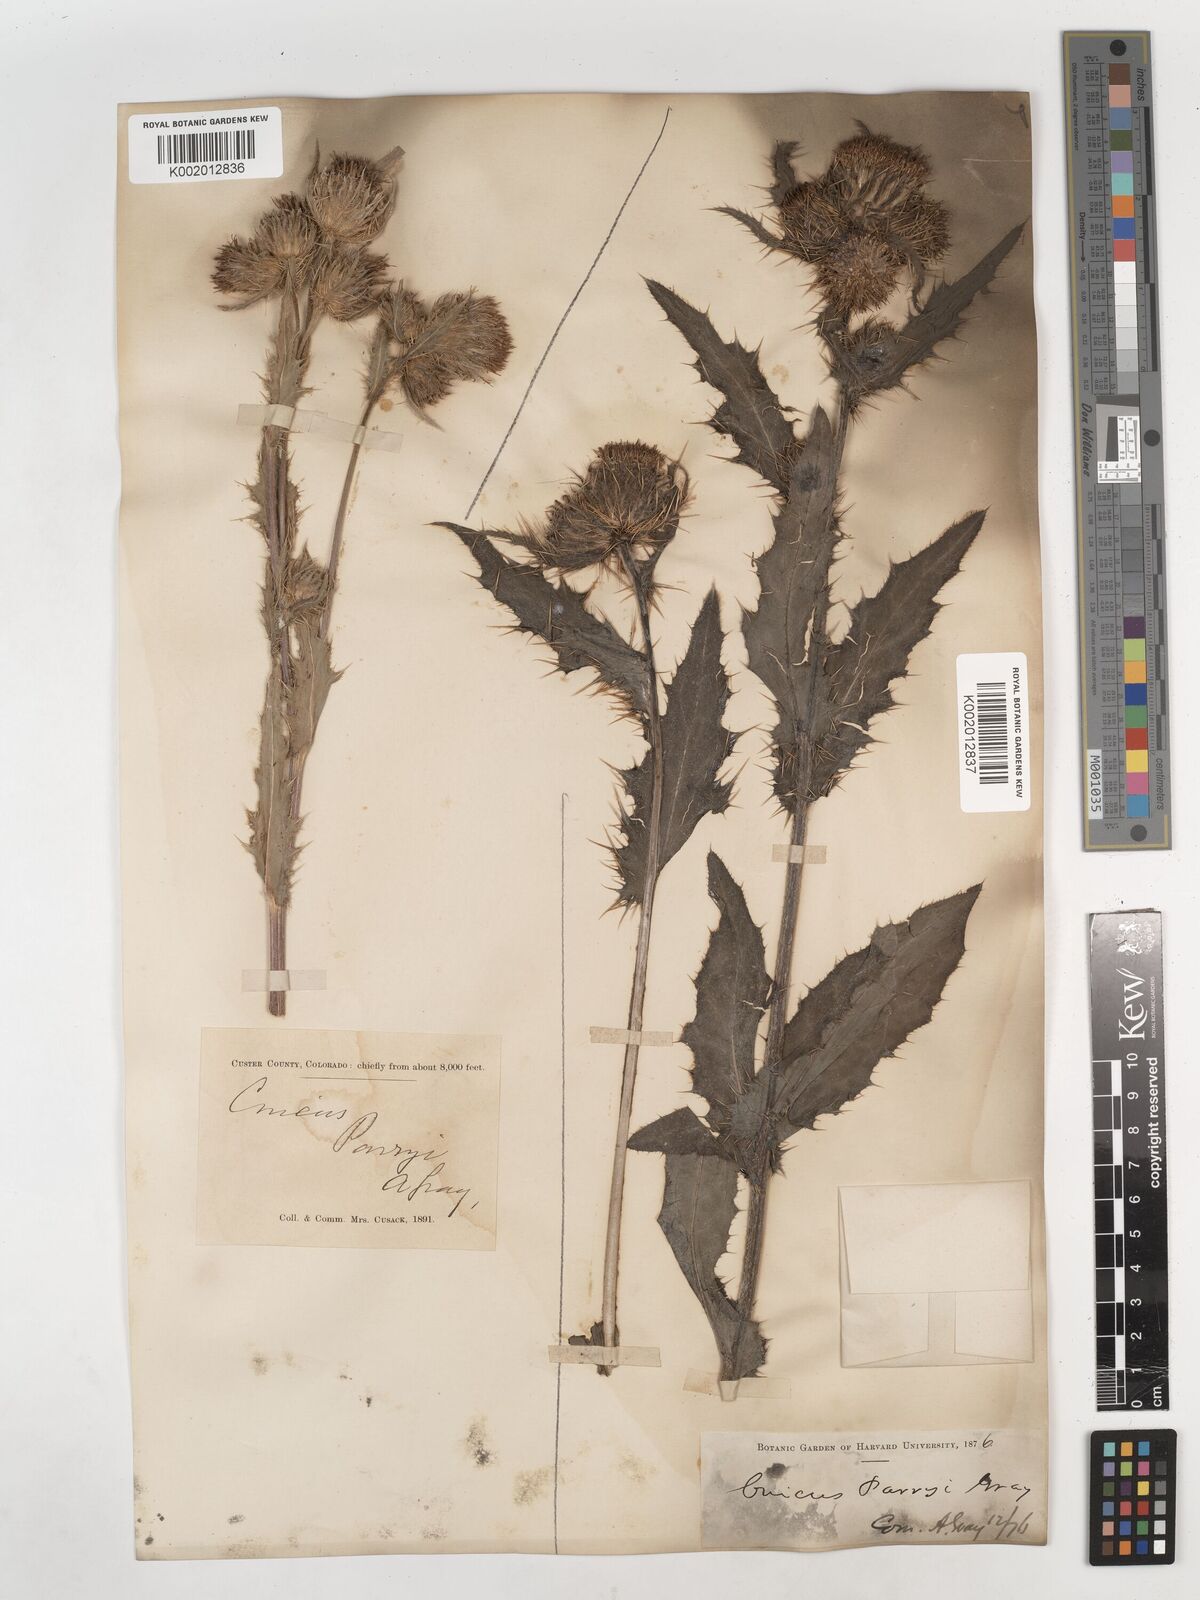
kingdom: Plantae
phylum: Tracheophyta
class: Magnoliopsida
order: Asterales
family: Asteraceae
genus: Cirsium
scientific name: Cirsium parryi
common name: Parry's thistle
